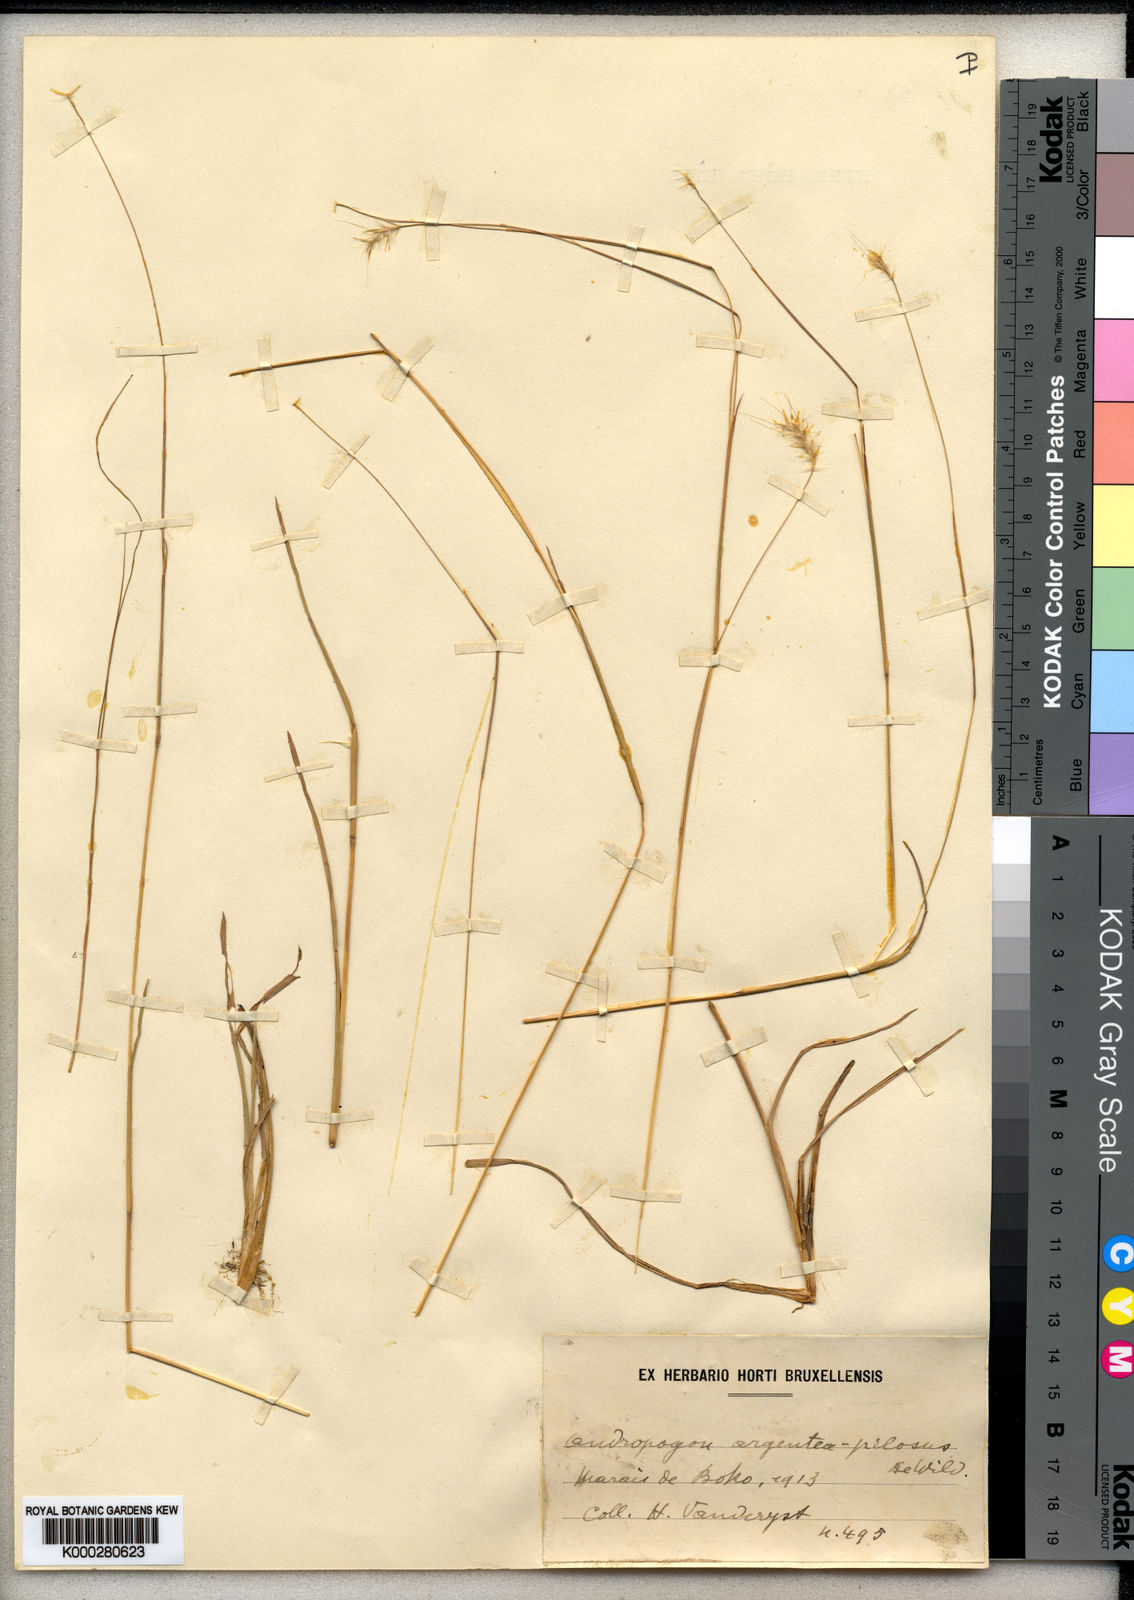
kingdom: Plantae
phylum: Tracheophyta
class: Liliopsida
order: Poales
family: Poaceae
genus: Andropogon
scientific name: Andropogon eucomus
